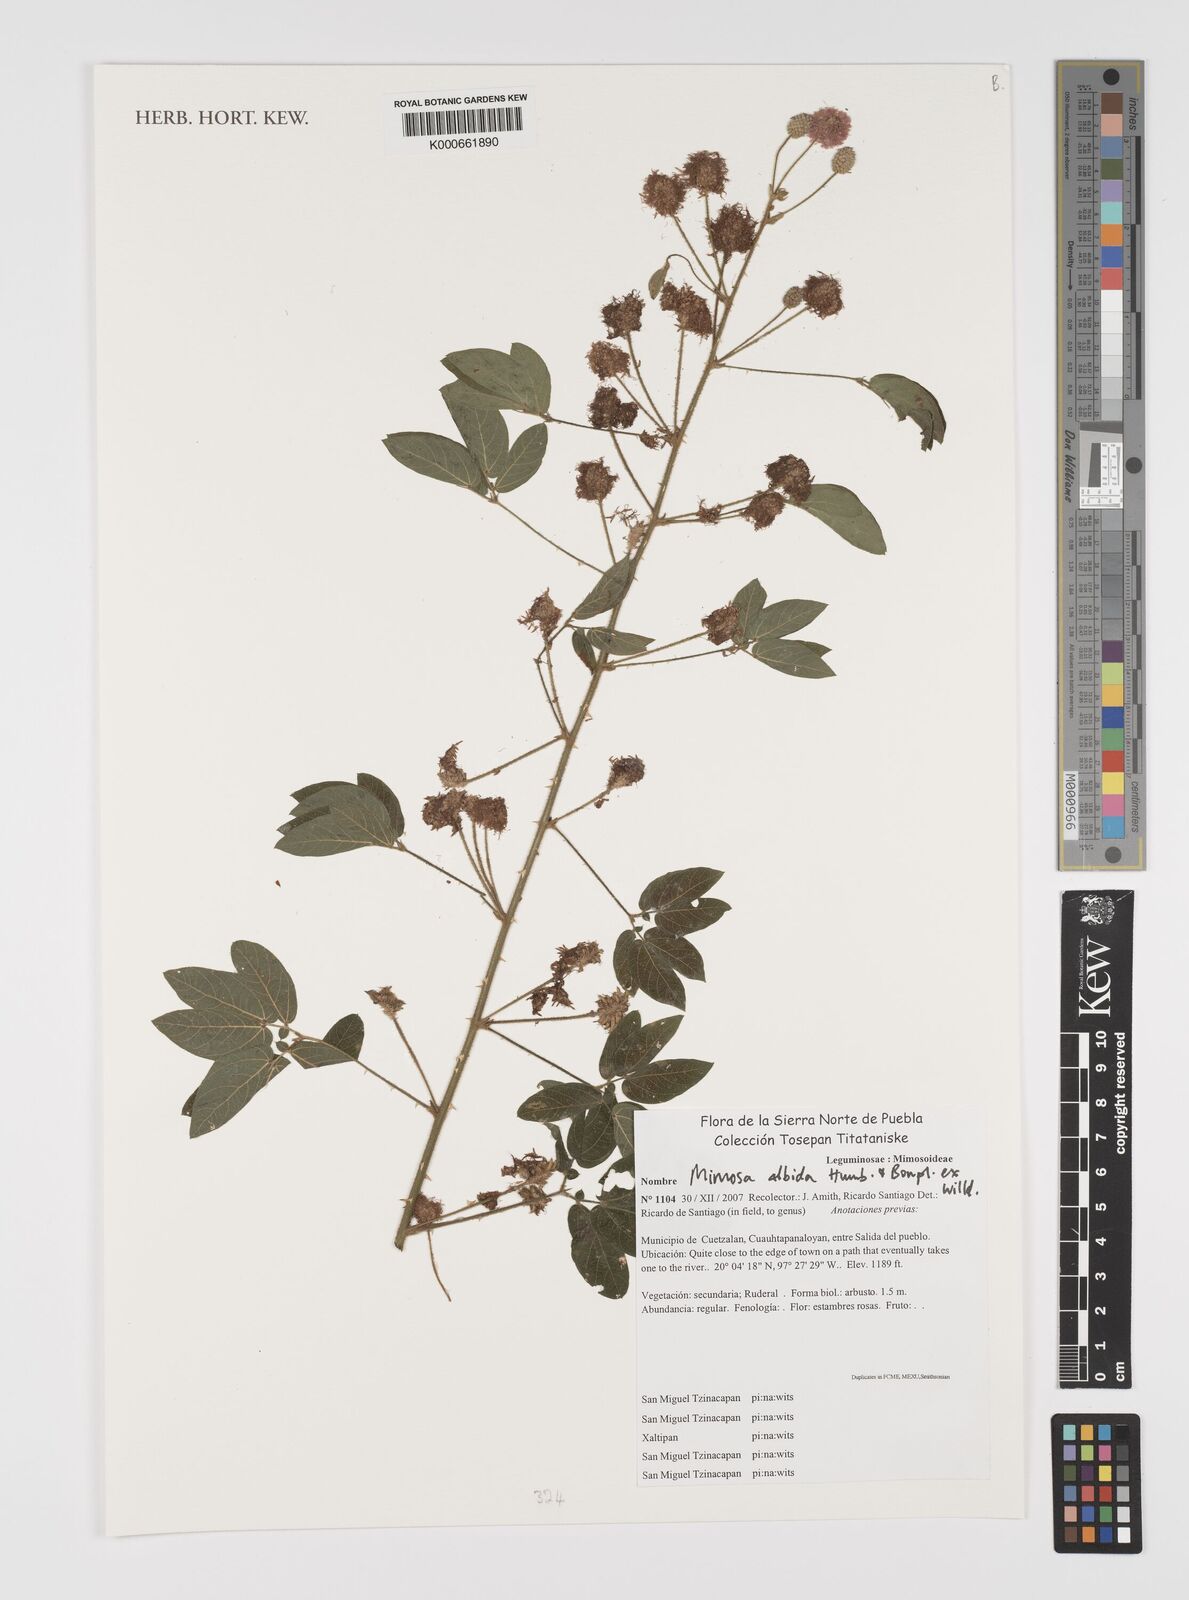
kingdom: Plantae
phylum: Tracheophyta
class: Magnoliopsida
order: Fabales
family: Fabaceae
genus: Mimosa
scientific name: Mimosa albida
